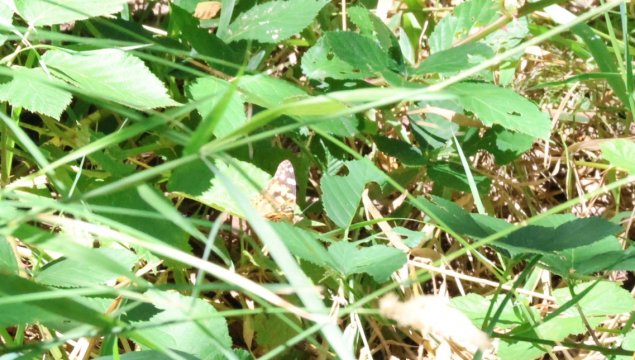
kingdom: Animalia
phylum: Arthropoda
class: Insecta
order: Lepidoptera
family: Nymphalidae
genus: Vanessa
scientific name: Vanessa cardui
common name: Painted Lady
